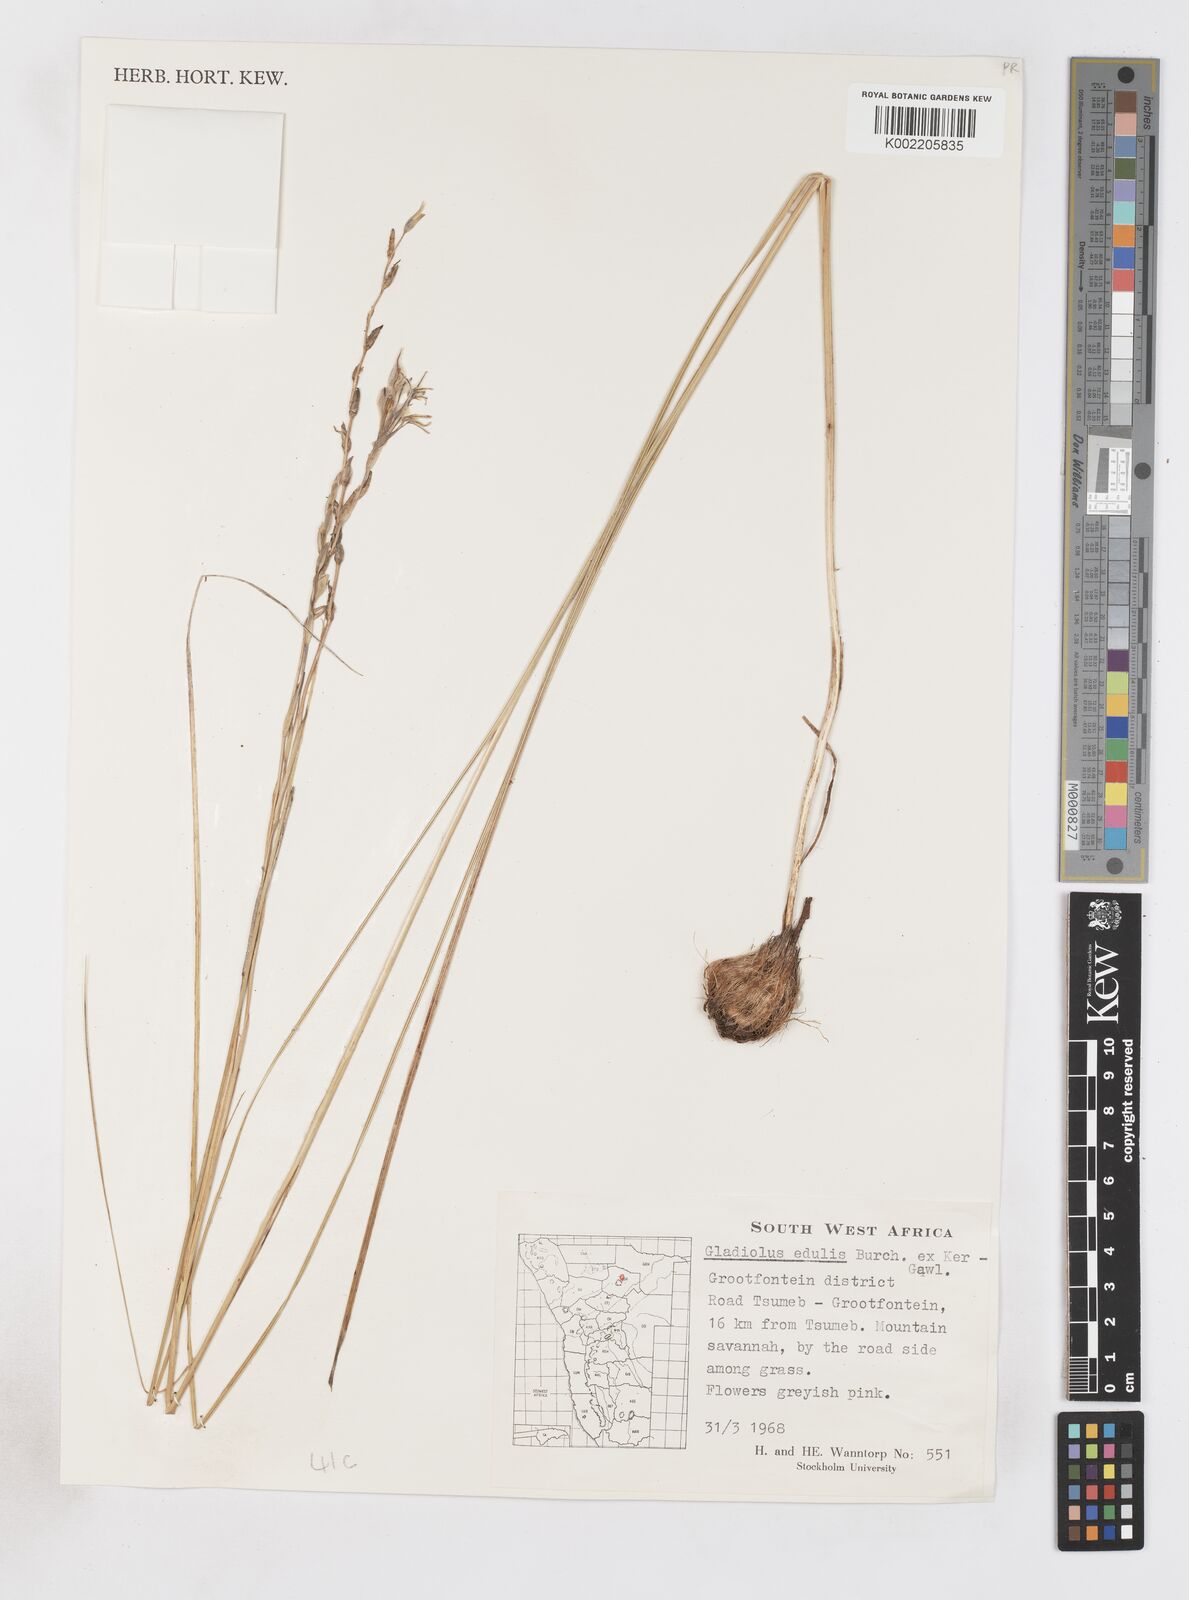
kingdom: Plantae
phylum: Tracheophyta
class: Liliopsida
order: Asparagales
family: Iridaceae
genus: Gladiolus
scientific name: Gladiolus permeabilis
